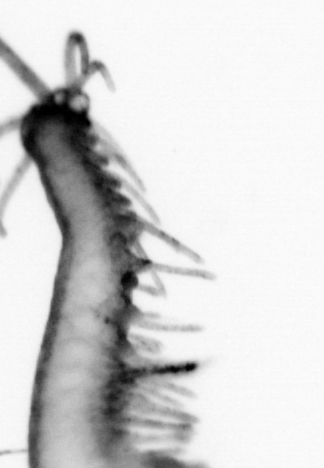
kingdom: Animalia
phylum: Annelida
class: Polychaeta
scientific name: Polychaeta
